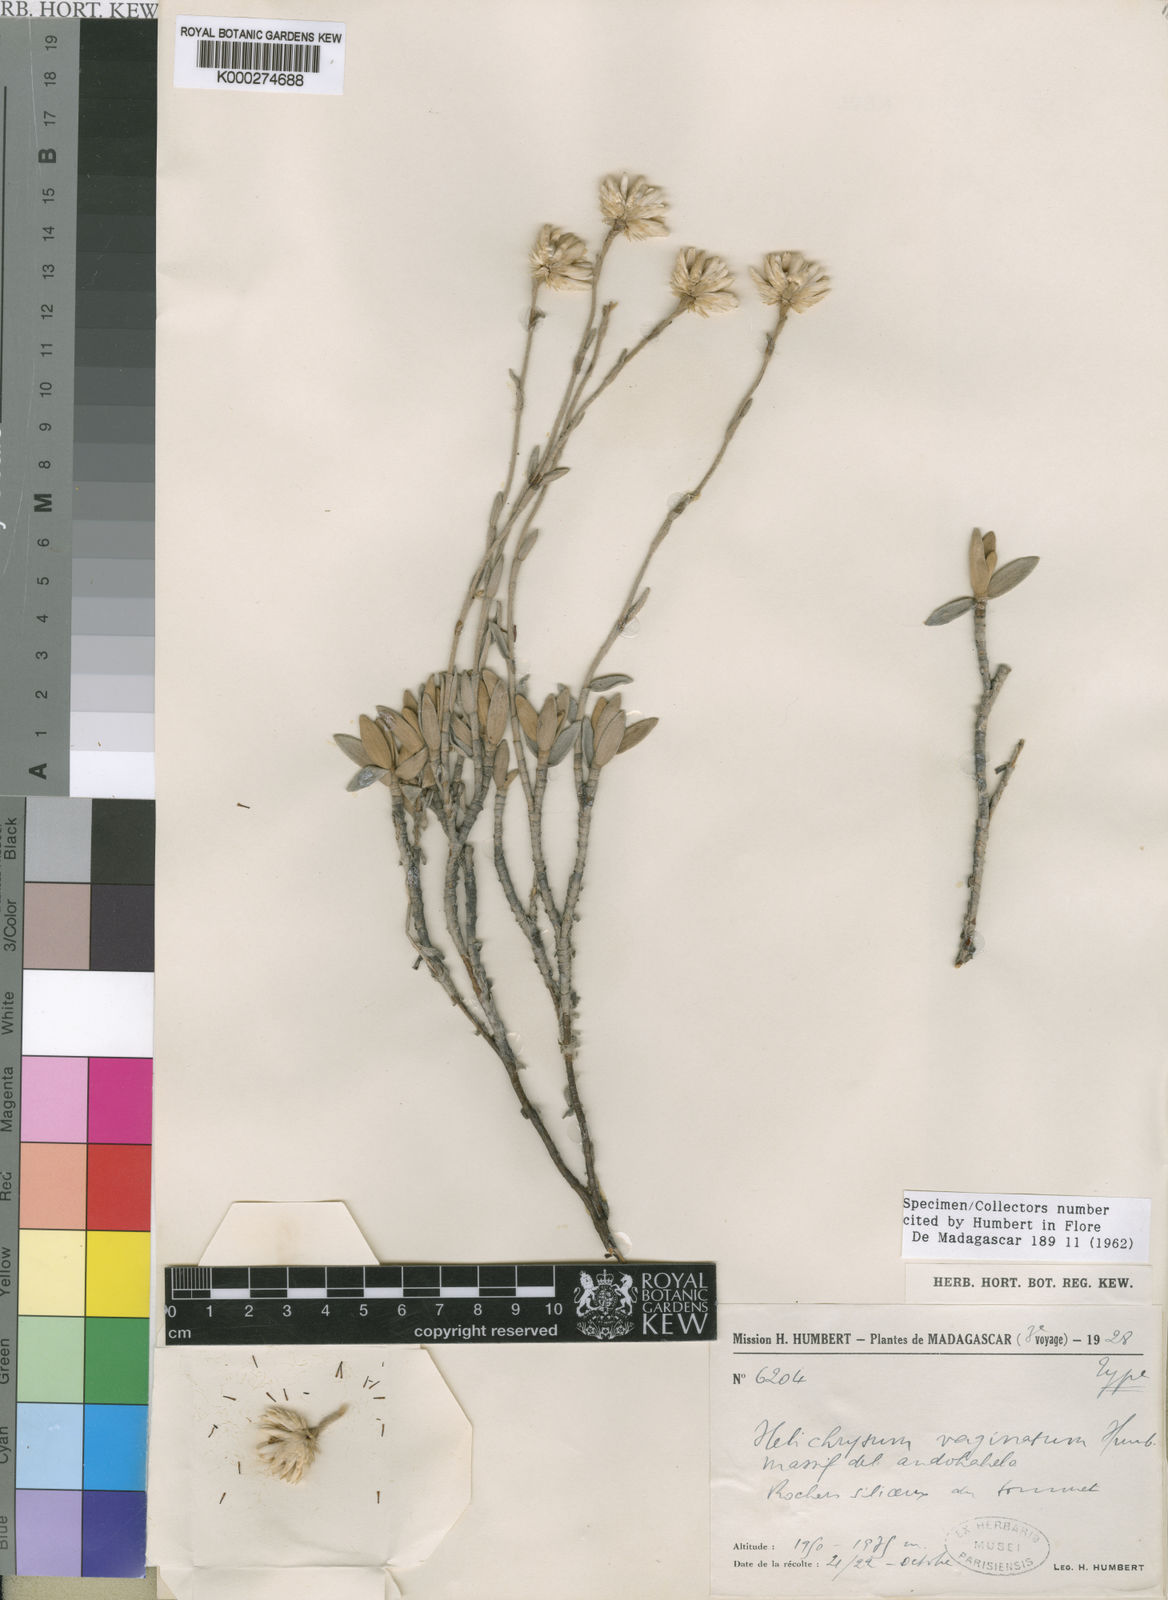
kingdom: Plantae
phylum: Tracheophyta
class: Magnoliopsida
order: Asterales
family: Asteraceae
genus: Helichrysum
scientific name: Helichrysum vaginatum
